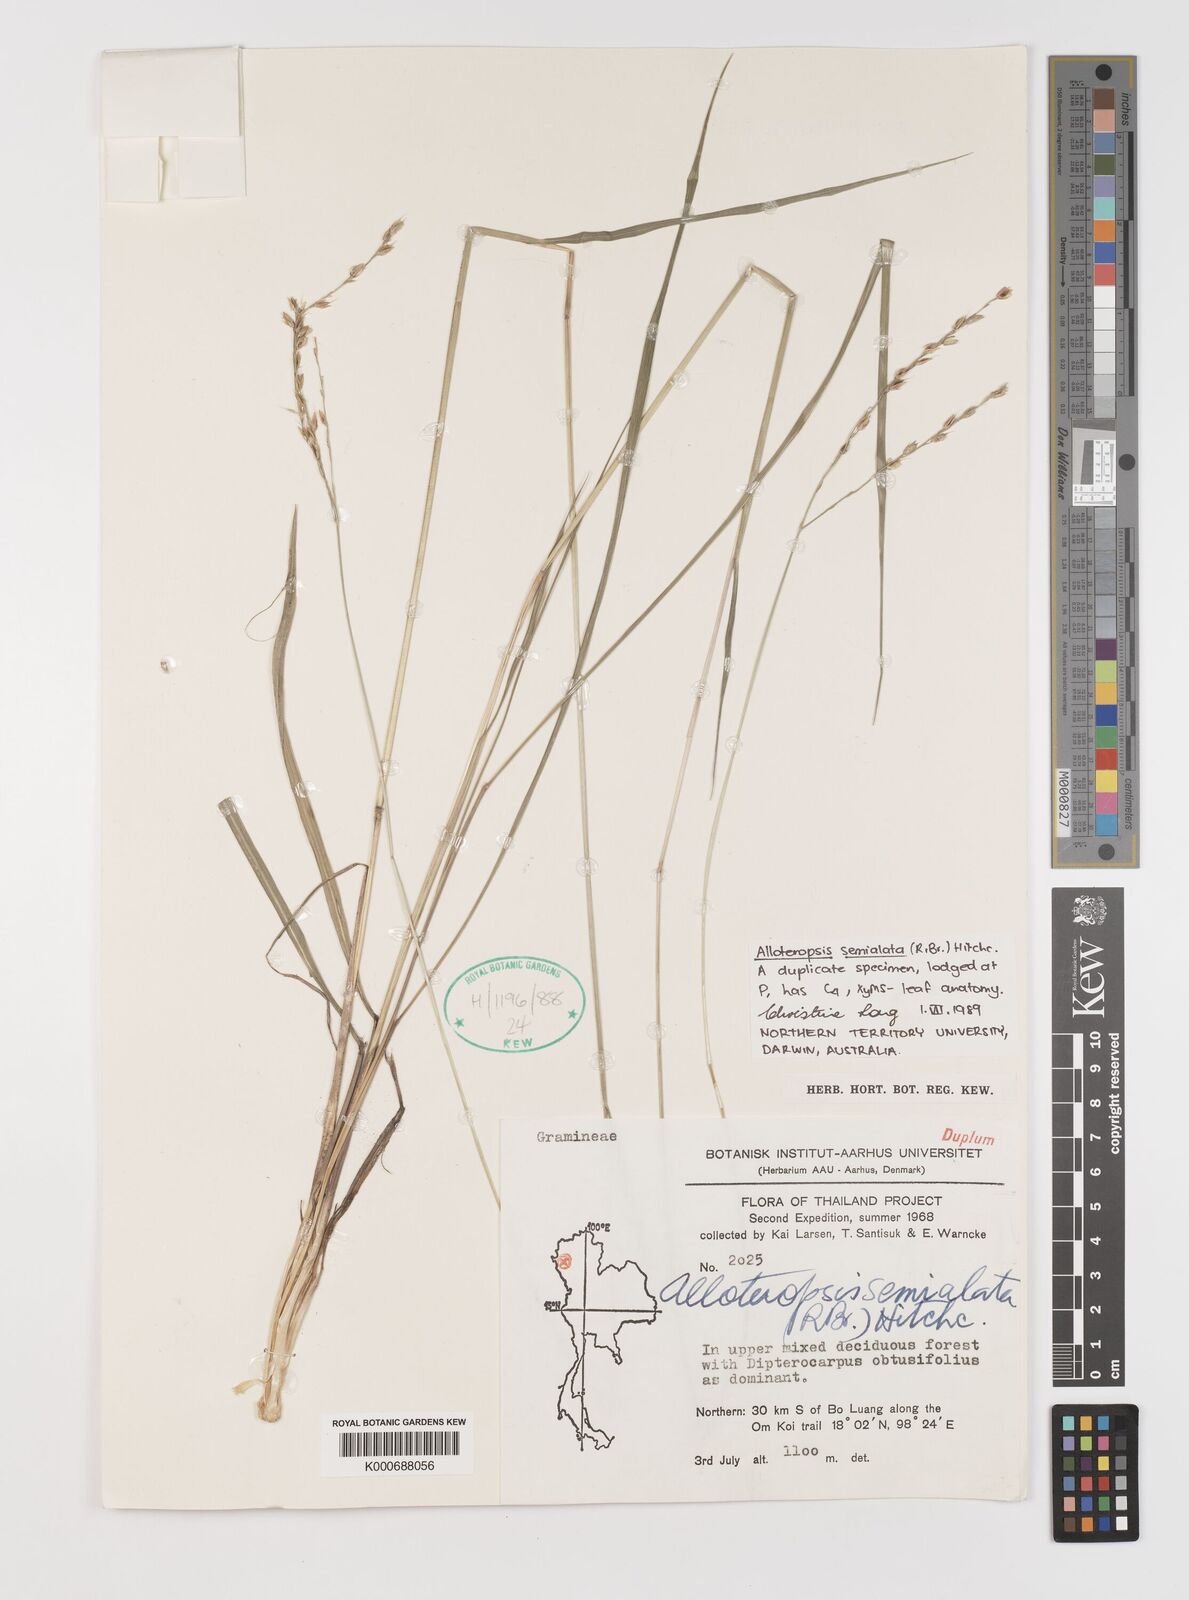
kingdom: Plantae
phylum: Tracheophyta
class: Liliopsida
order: Poales
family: Poaceae
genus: Alloteropsis
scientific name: Alloteropsis semialata
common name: Cockatoo grass
